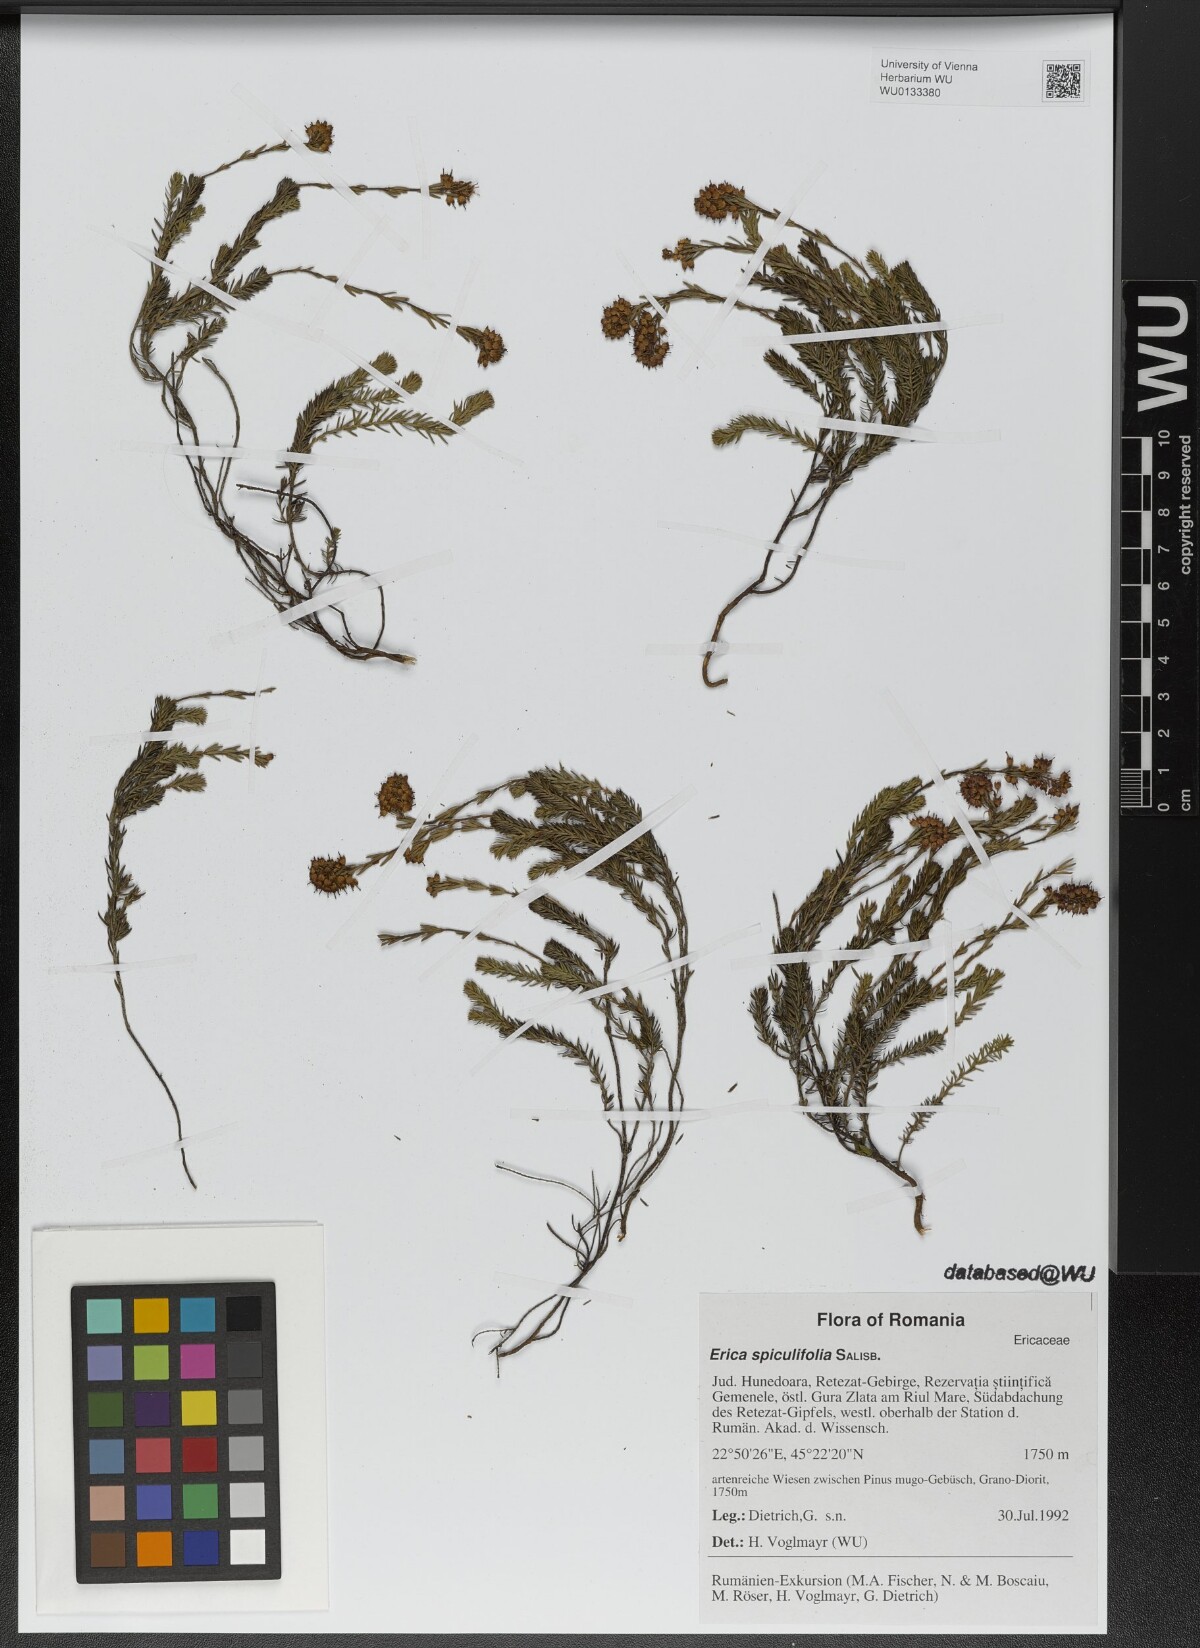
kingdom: Plantae
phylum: Tracheophyta
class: Magnoliopsida
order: Ericales
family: Ericaceae
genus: Erica
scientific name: Erica spiculifolia
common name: Spike heath
